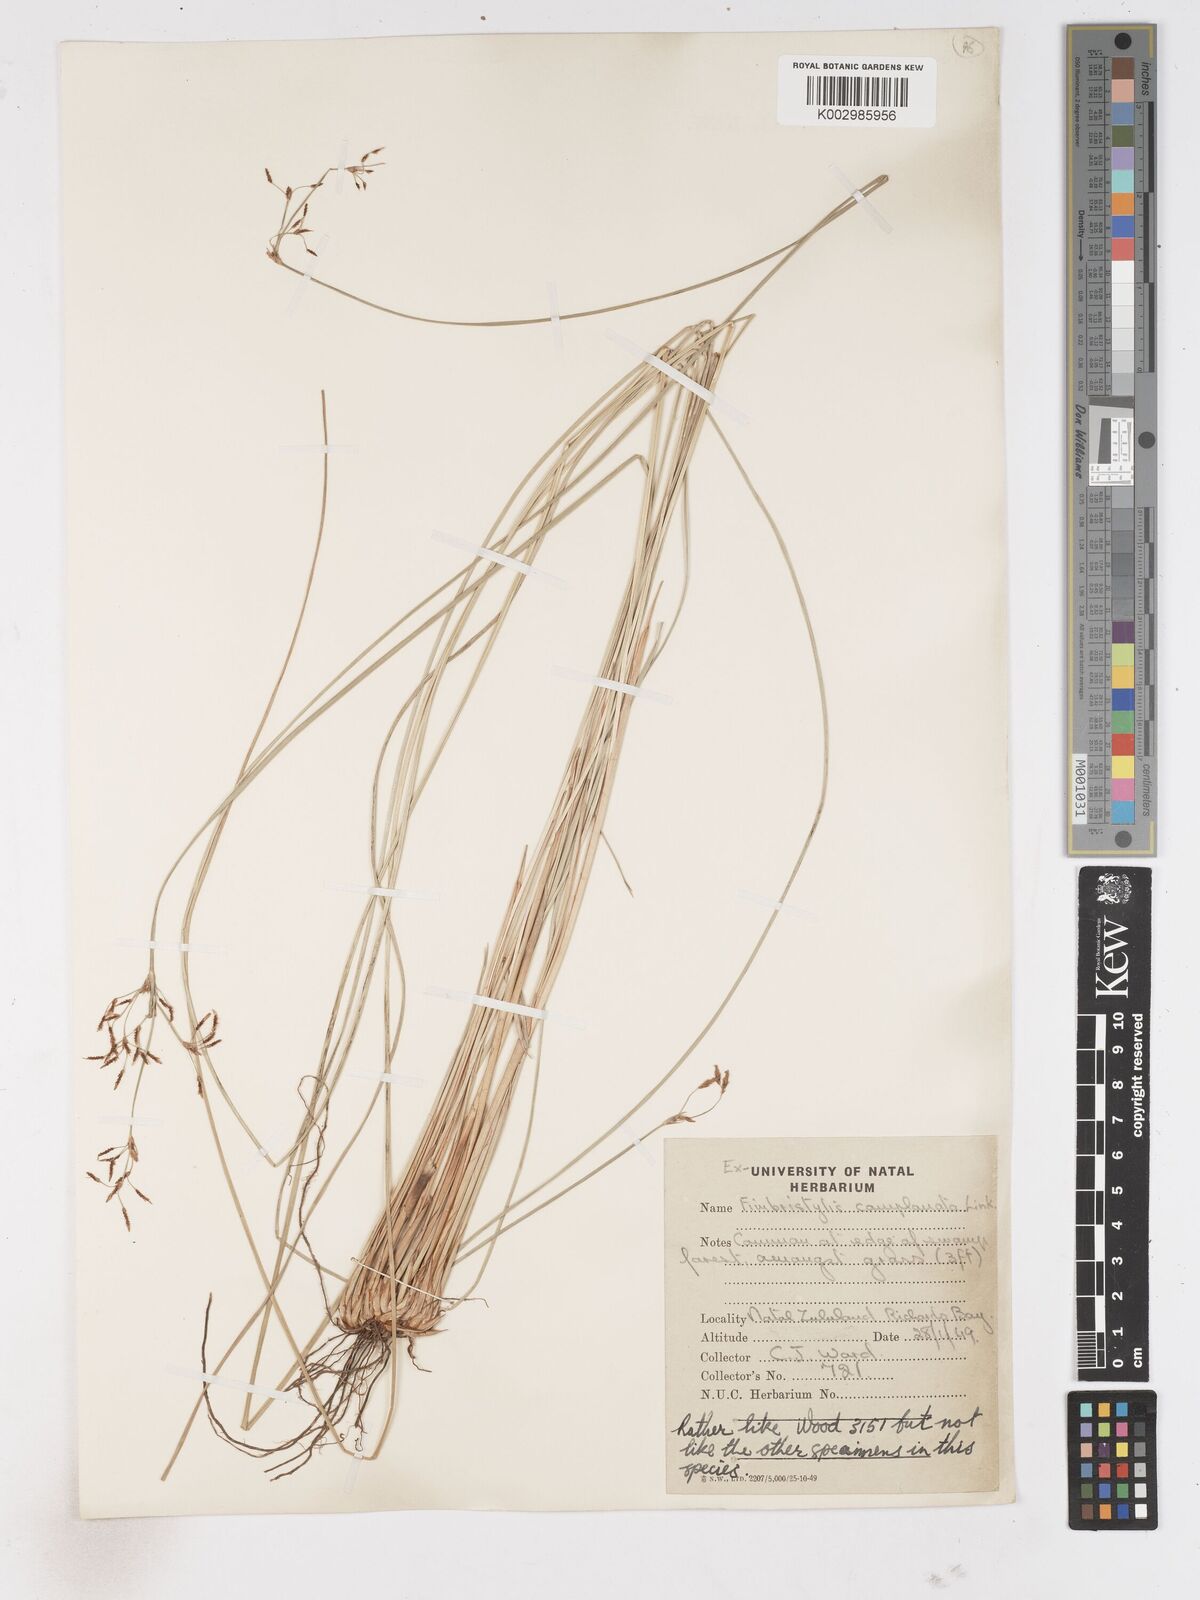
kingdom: Plantae
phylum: Tracheophyta
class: Liliopsida
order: Poales
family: Cyperaceae
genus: Fimbristylis
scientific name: Fimbristylis complanata
